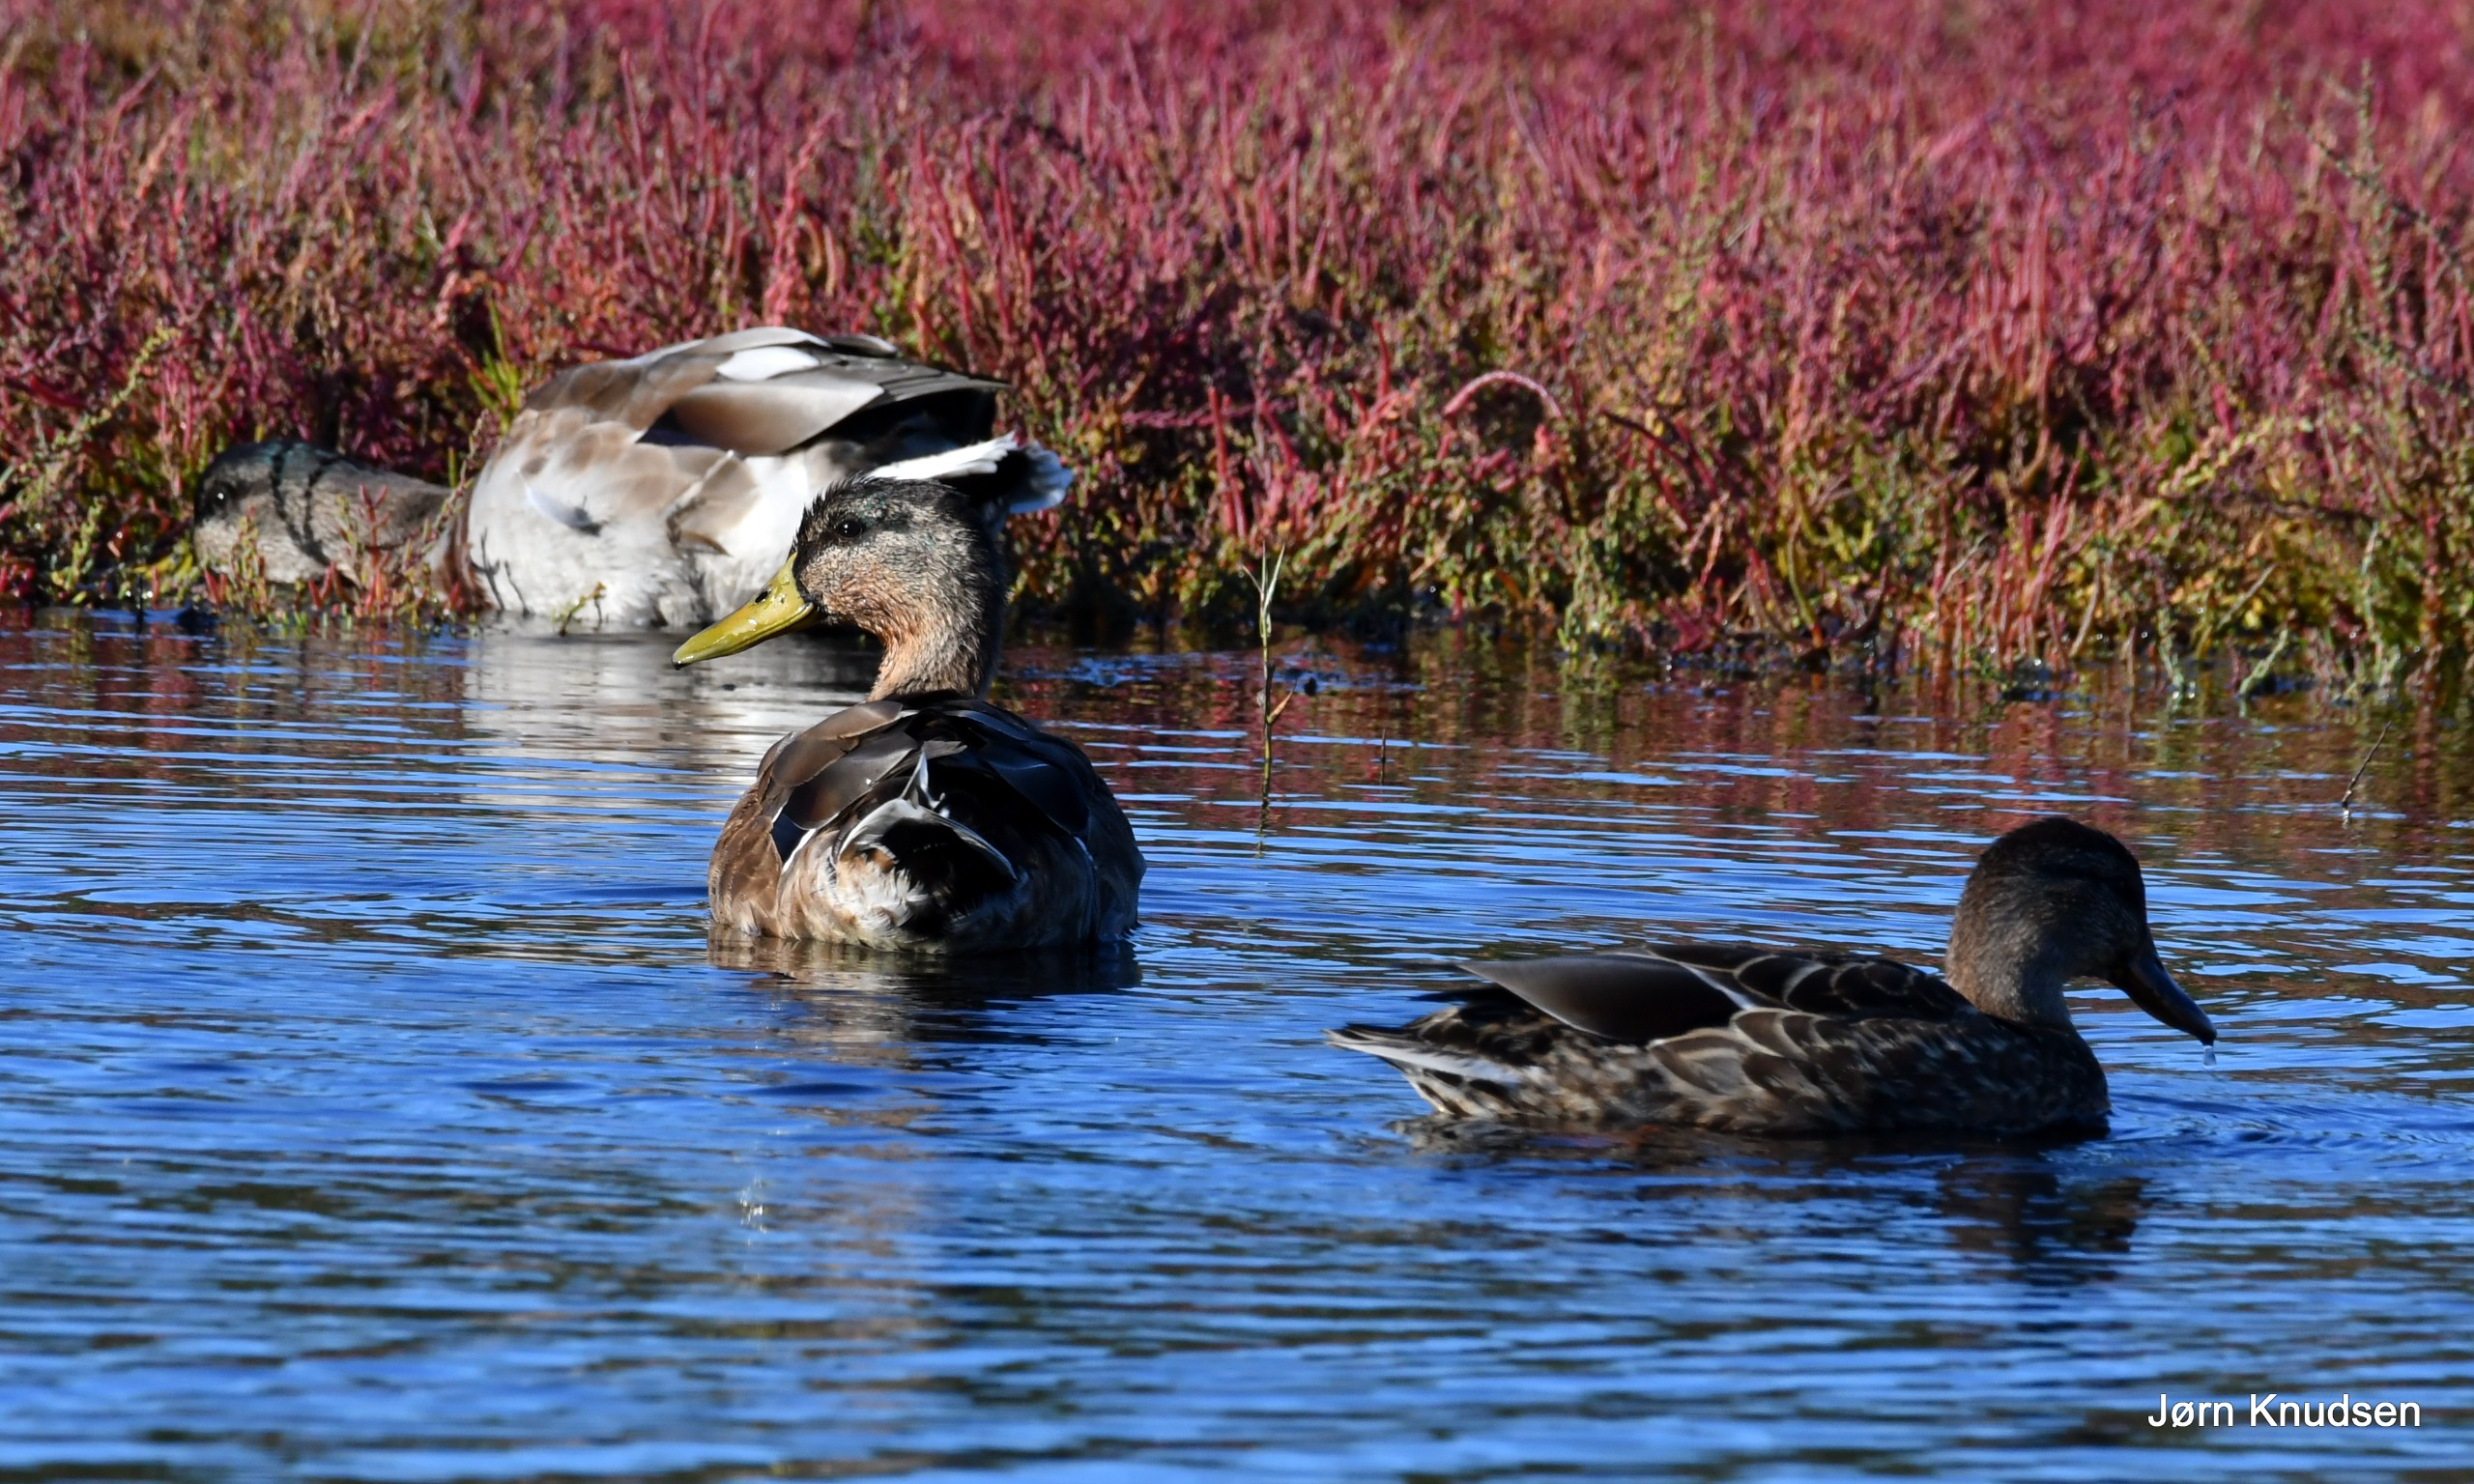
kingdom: Animalia
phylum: Chordata
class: Aves
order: Anseriformes
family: Anatidae
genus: Anas
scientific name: Anas platyrhynchos
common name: Gråand
